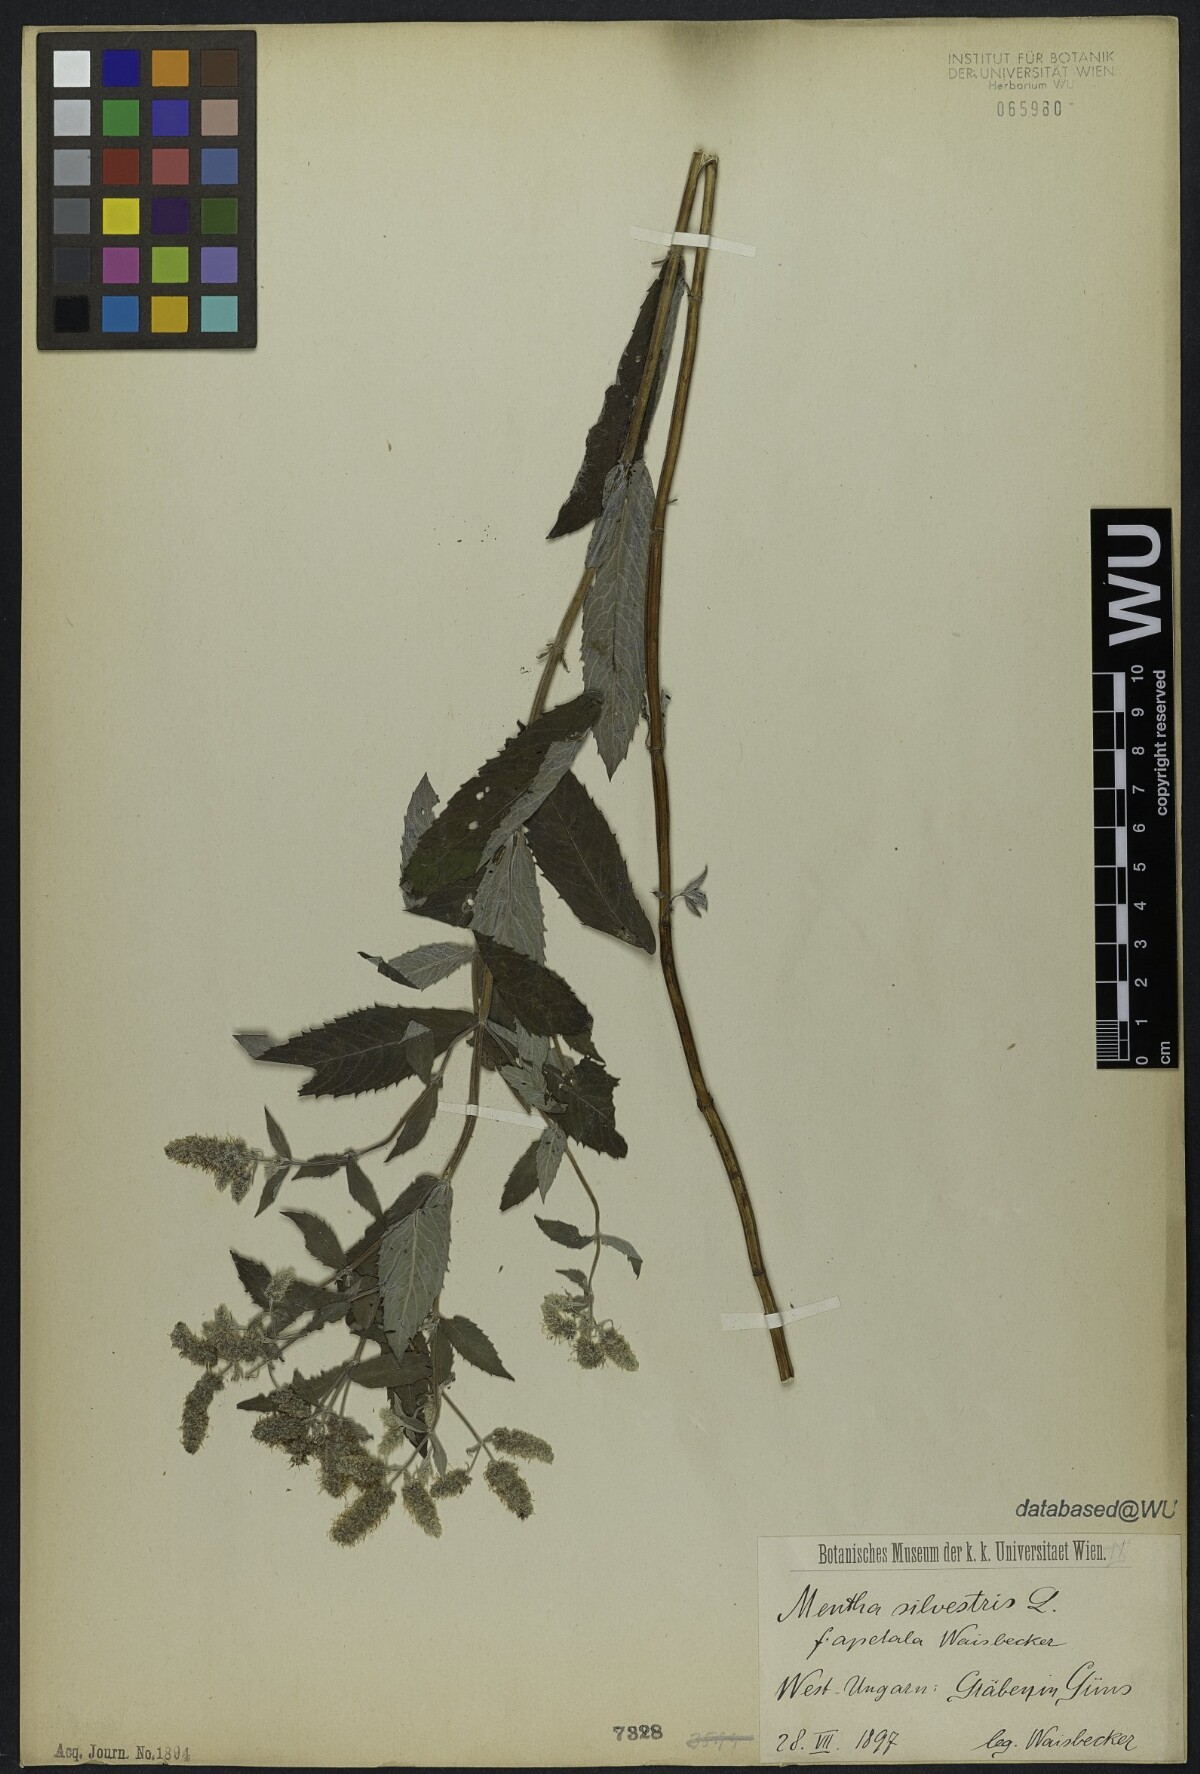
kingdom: Plantae
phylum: Tracheophyta
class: Magnoliopsida
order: Lamiales
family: Lamiaceae
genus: Mentha
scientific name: Mentha
